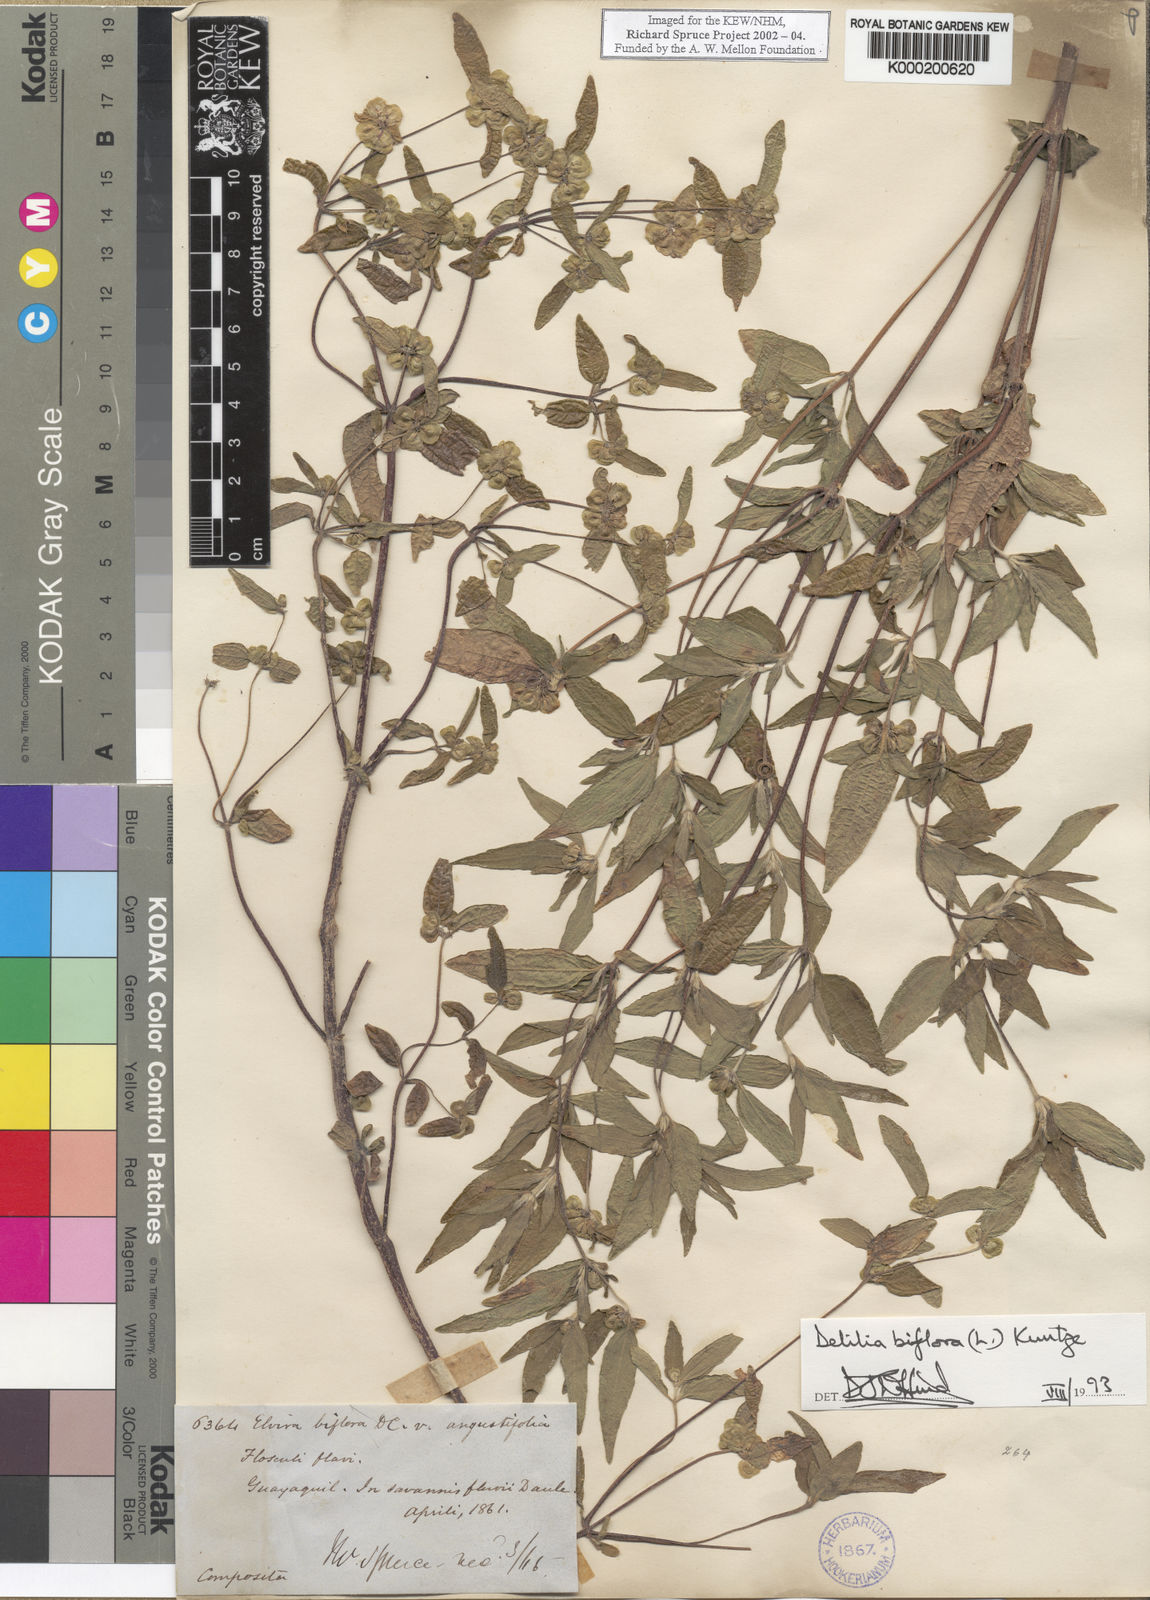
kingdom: Plantae
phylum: Tracheophyta
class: Magnoliopsida
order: Asterales
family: Asteraceae
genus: Delilia
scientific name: Delilia biflora
